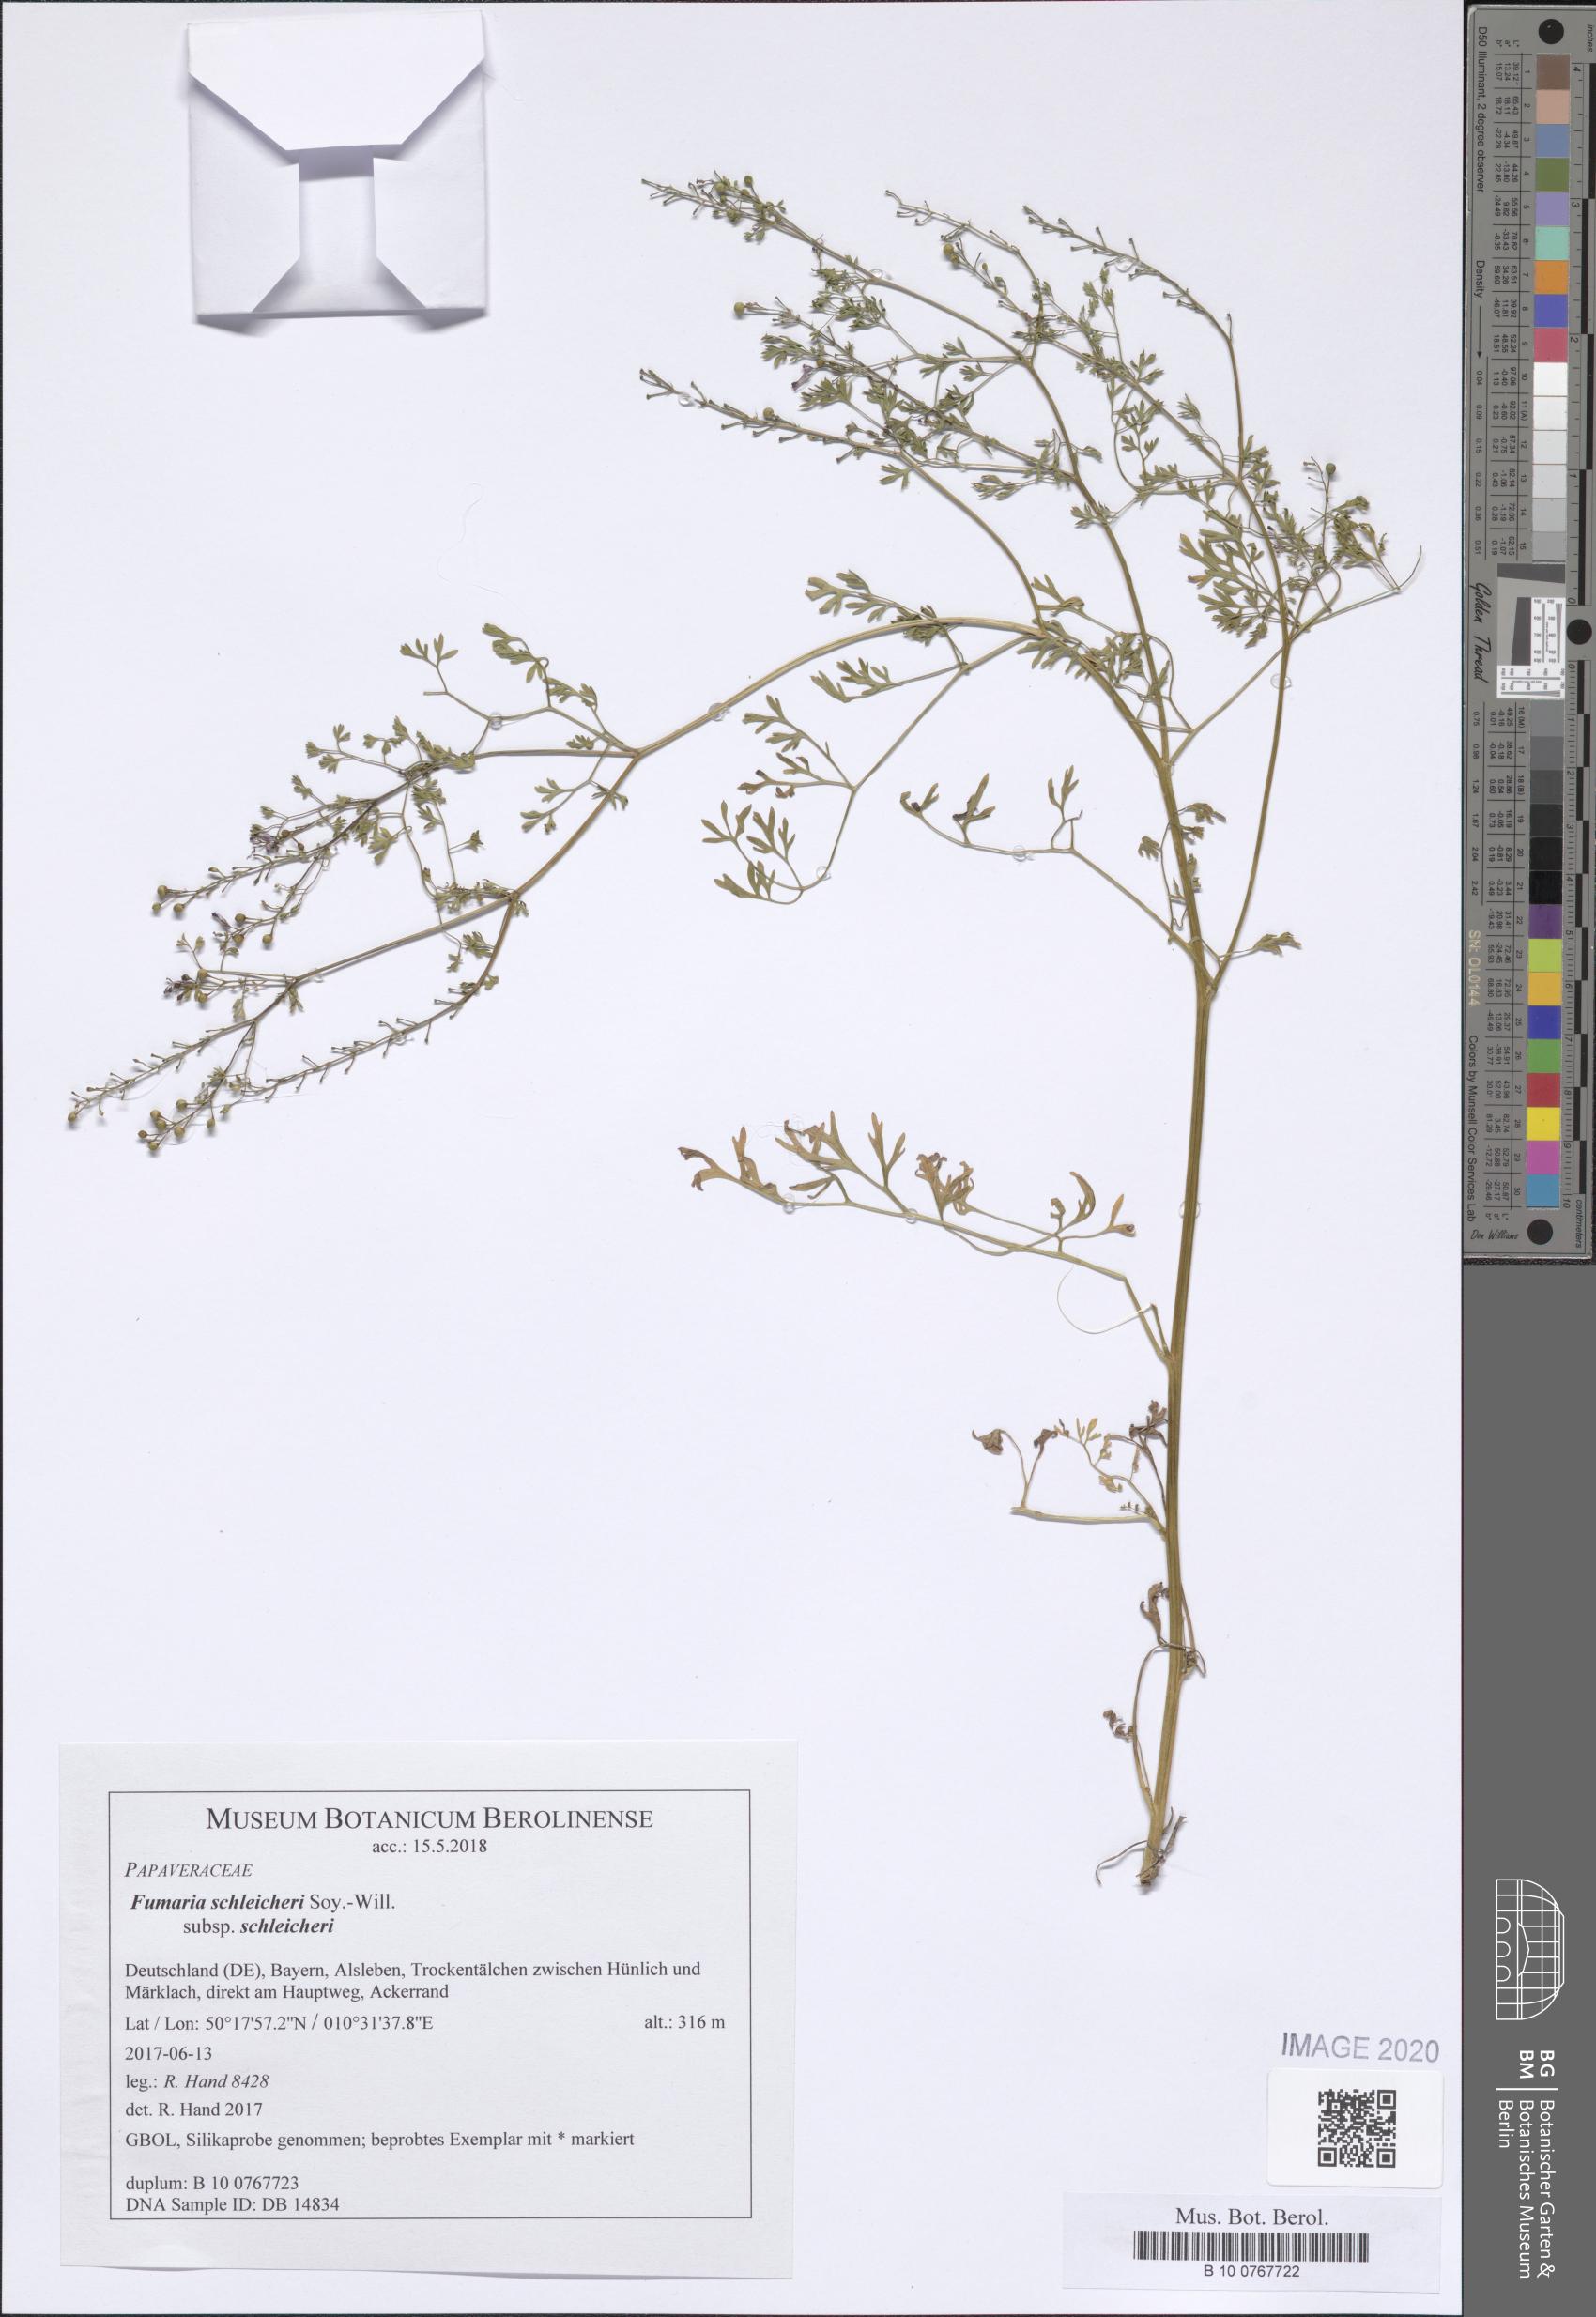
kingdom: Plantae
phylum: Tracheophyta
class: Magnoliopsida
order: Ranunculales
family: Papaveraceae
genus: Fumaria
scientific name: Fumaria schleicheri
